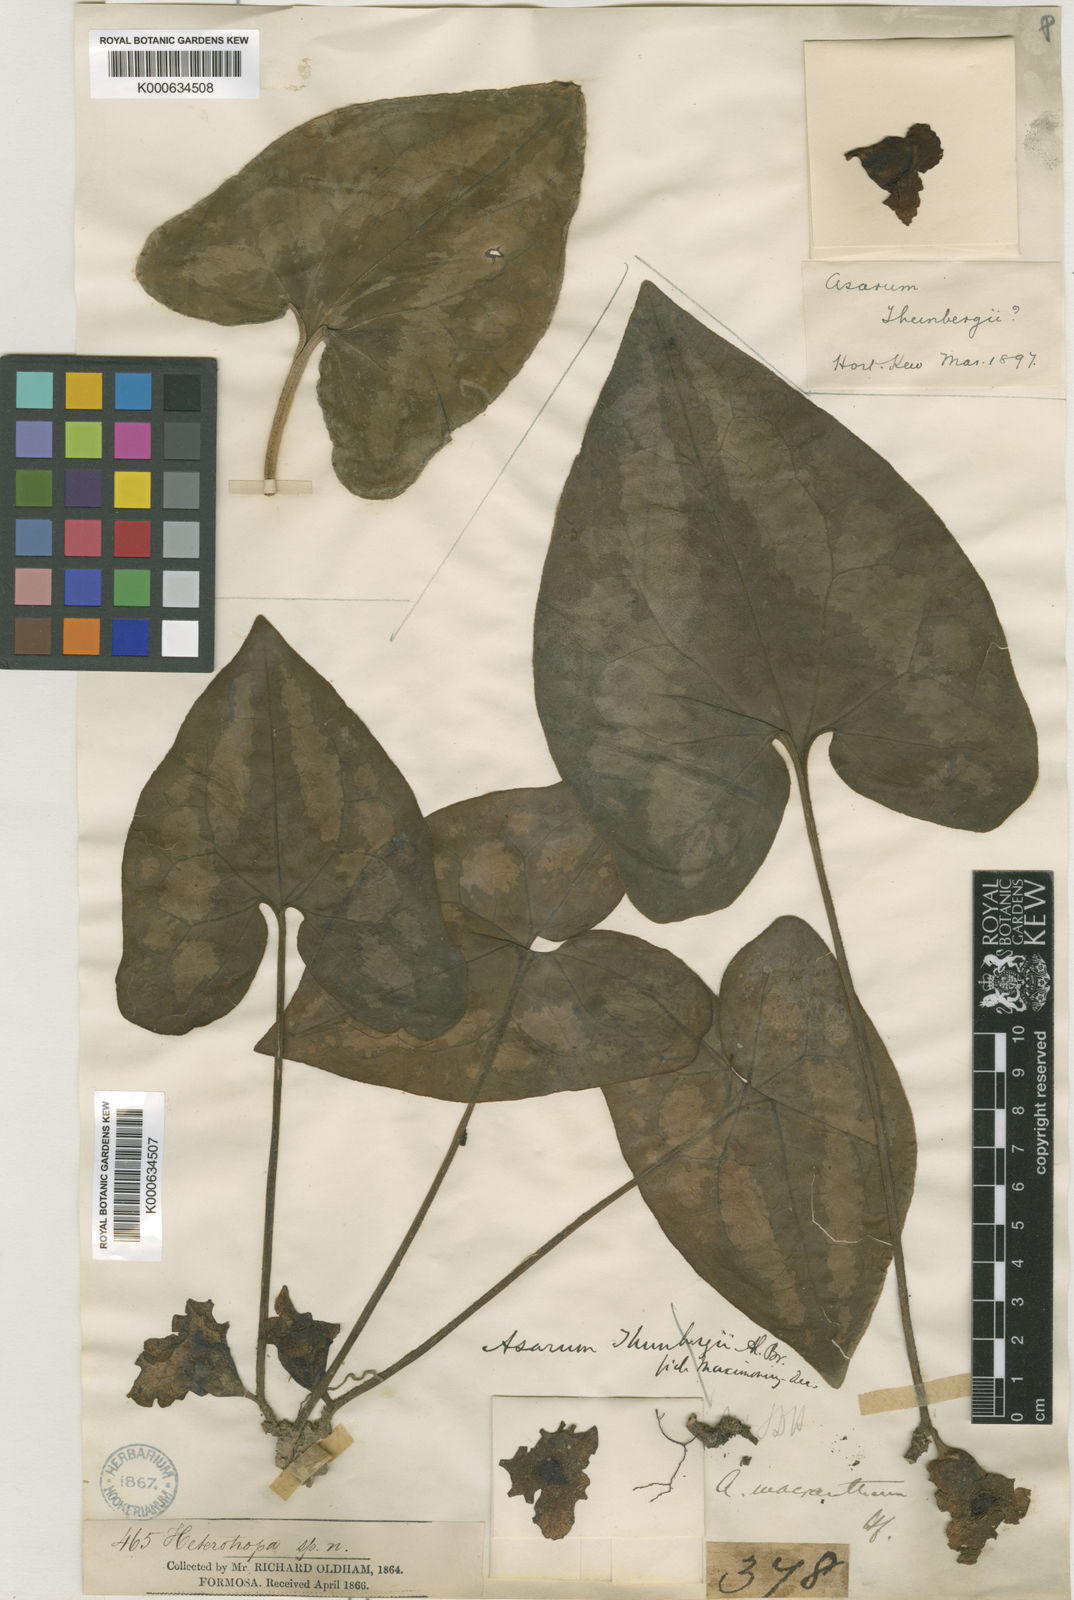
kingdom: Plantae
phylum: Tracheophyta
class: Magnoliopsida
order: Piperales
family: Aristolochiaceae
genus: Asarum
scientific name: Asarum macranthum
